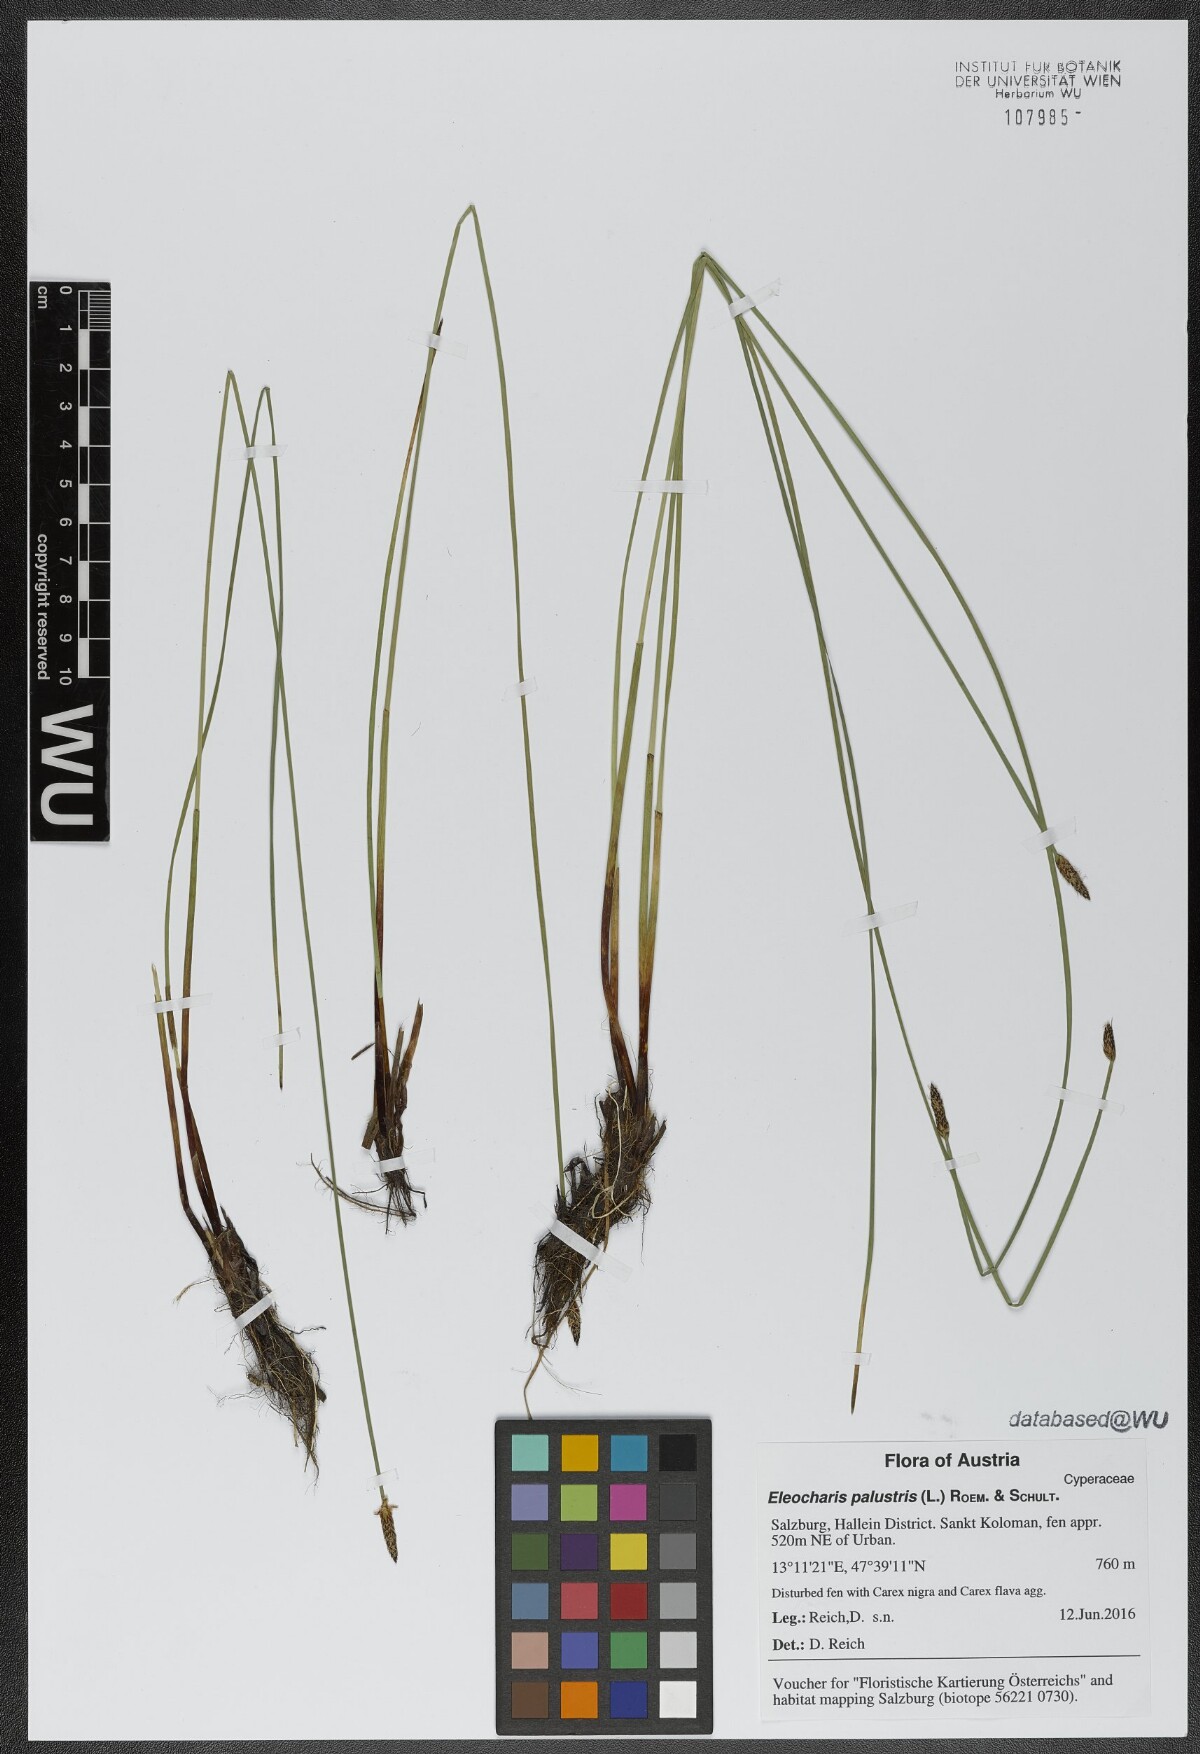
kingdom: Plantae
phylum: Tracheophyta
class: Liliopsida
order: Poales
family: Cyperaceae
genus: Eleocharis
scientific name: Eleocharis palustris
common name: Common spike-rush
